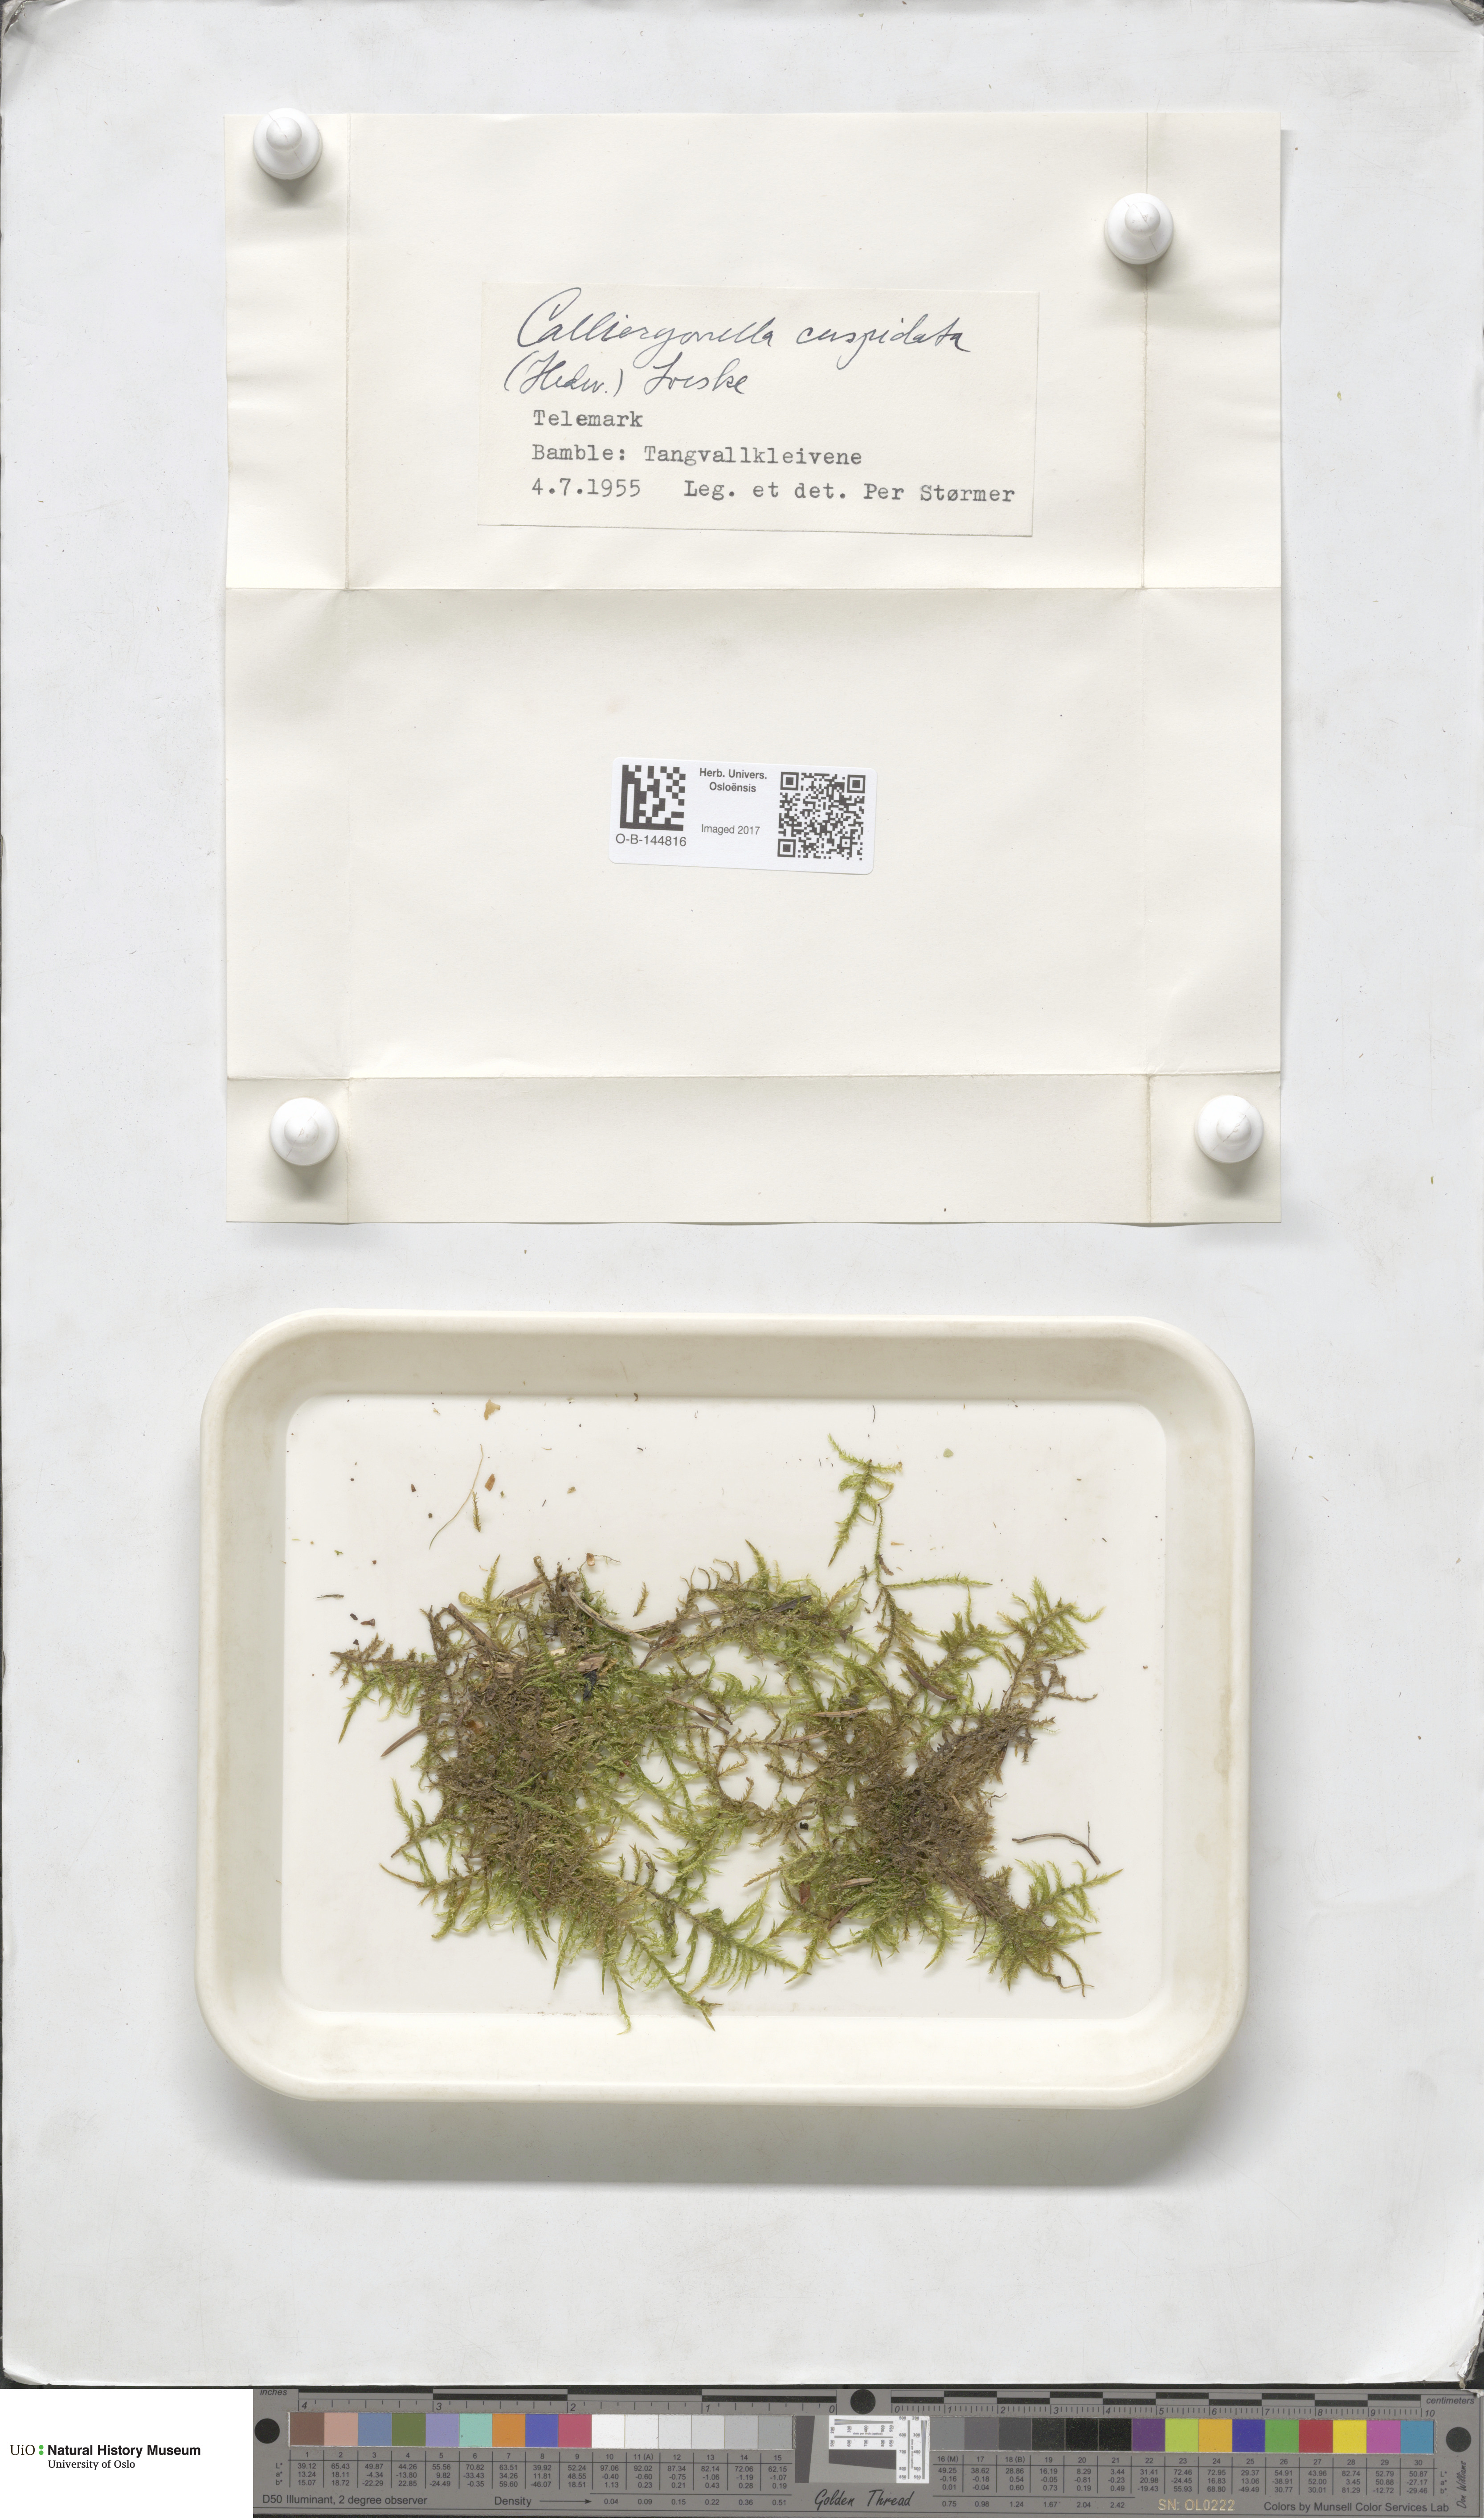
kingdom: Plantae
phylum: Bryophyta
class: Bryopsida
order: Hypnales
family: Pylaisiaceae
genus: Calliergonella
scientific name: Calliergonella cuspidata
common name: Common large wetland moss
